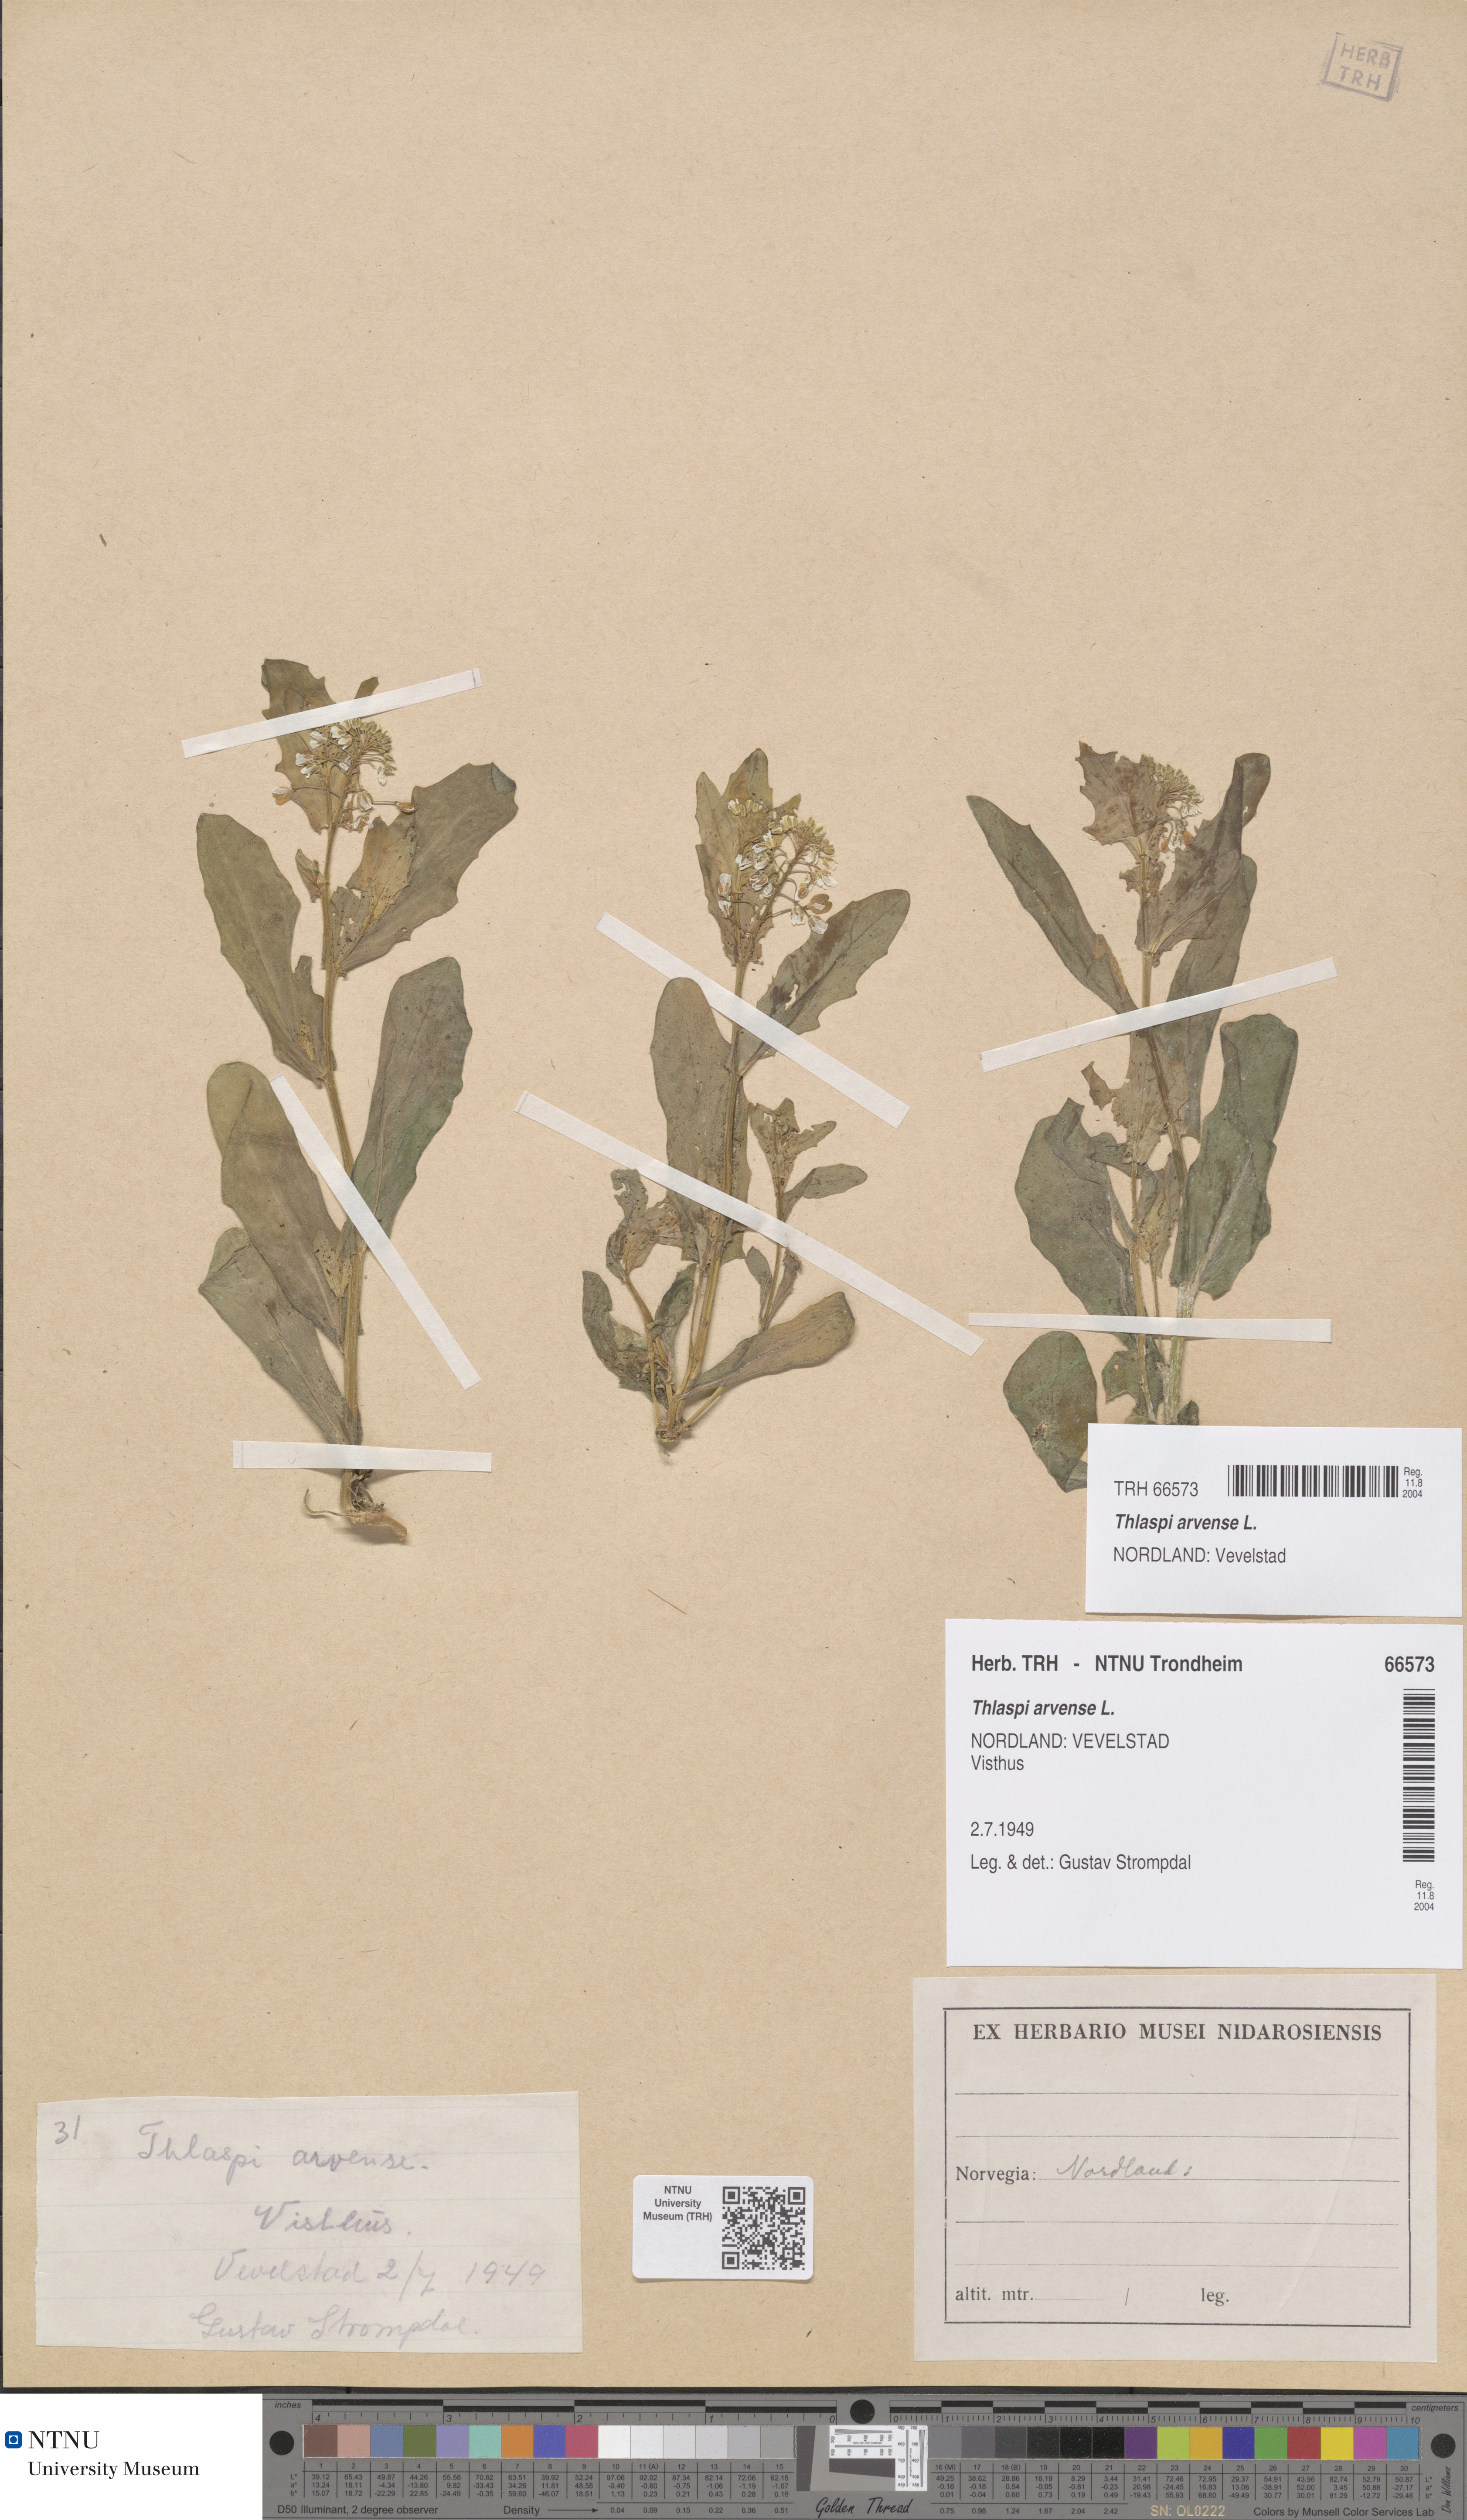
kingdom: Plantae
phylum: Tracheophyta
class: Magnoliopsida
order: Brassicales
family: Brassicaceae
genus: Thlaspi
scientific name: Thlaspi arvense
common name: Field pennycress
